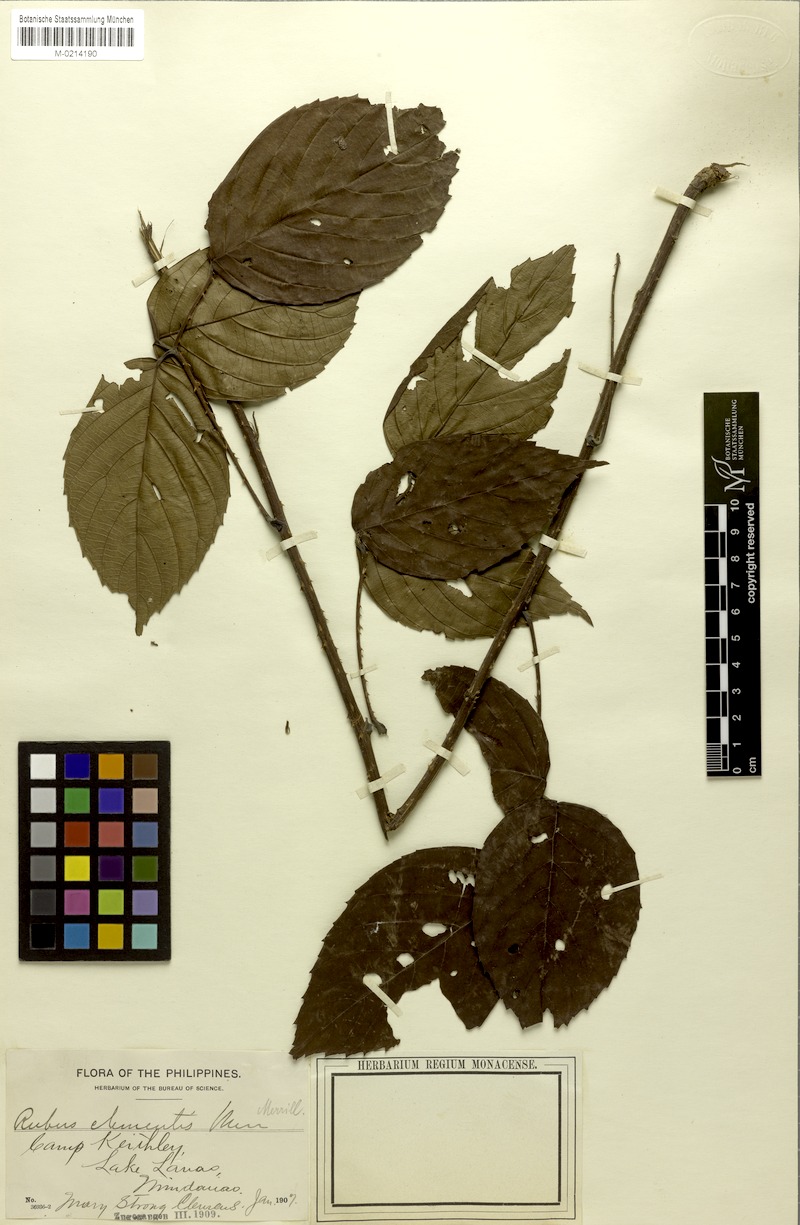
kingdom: Plantae
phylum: Tracheophyta
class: Magnoliopsida
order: Rosales
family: Rosaceae
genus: Rubus
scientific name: Rubus clementis
